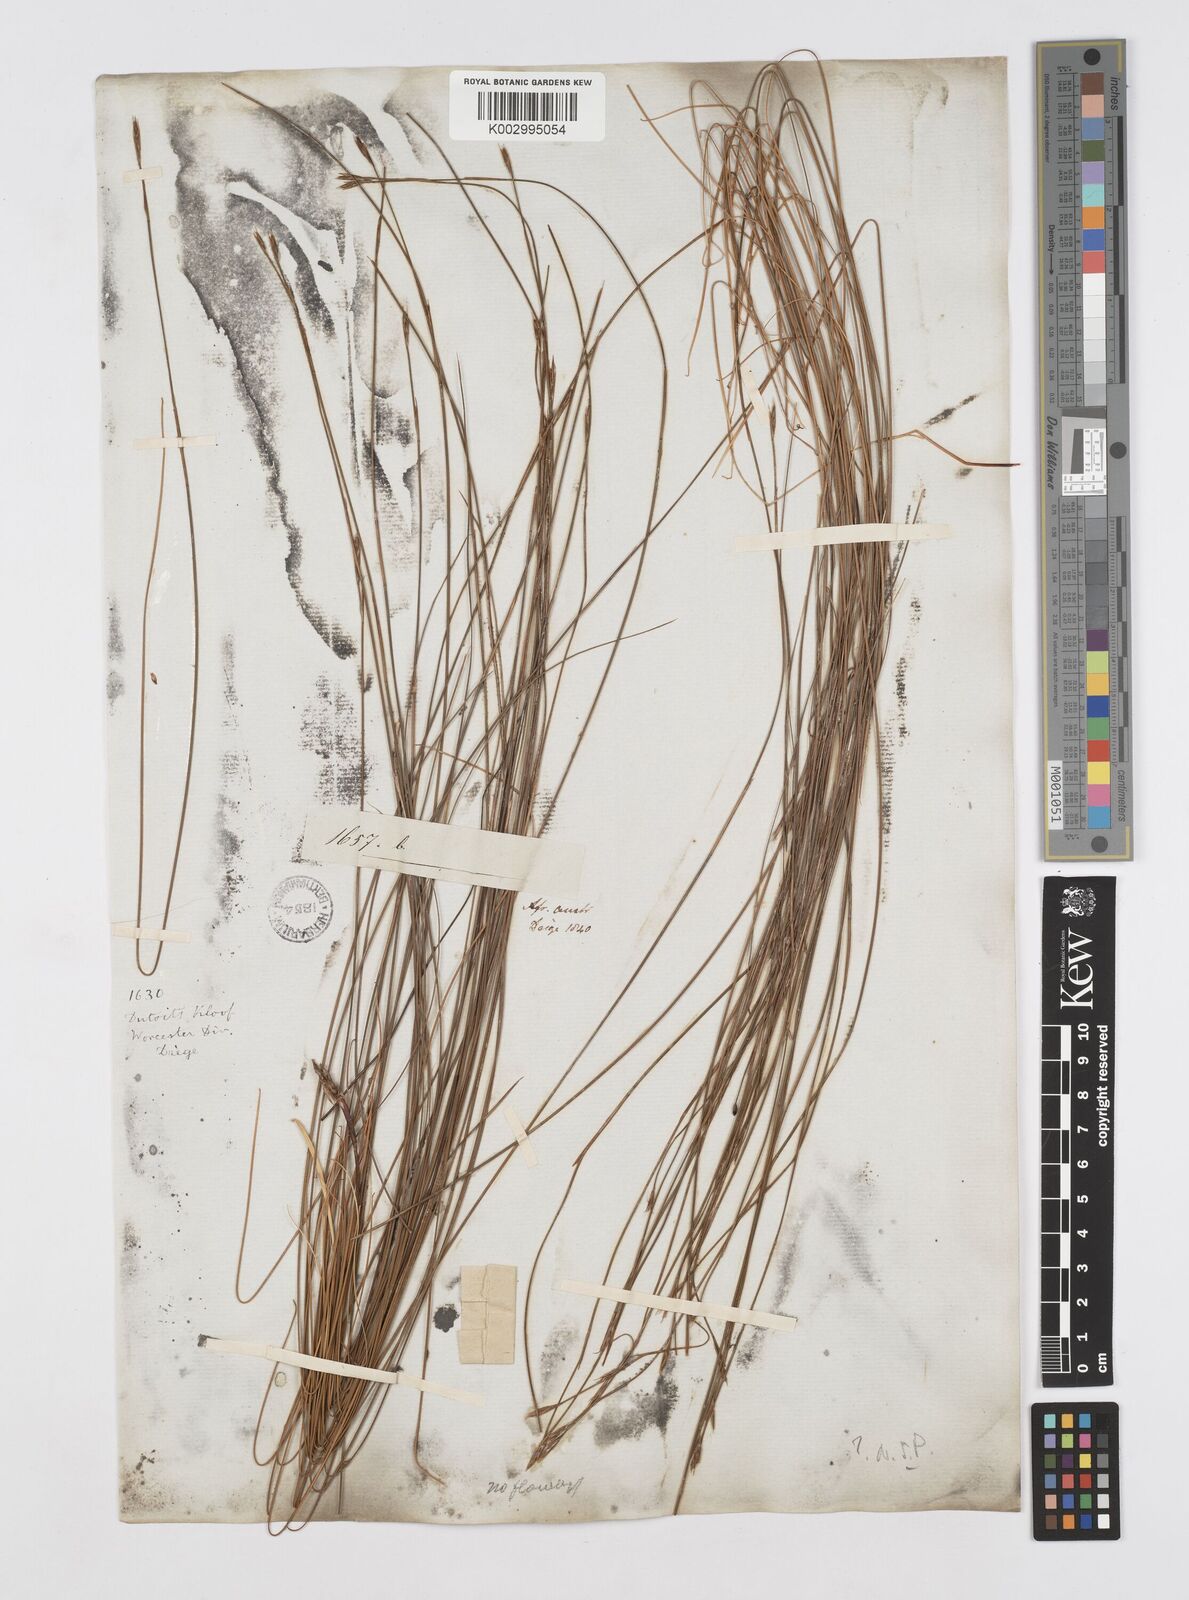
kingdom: Plantae
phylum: Tracheophyta
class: Liliopsida
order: Poales
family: Restionaceae
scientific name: Restionaceae
